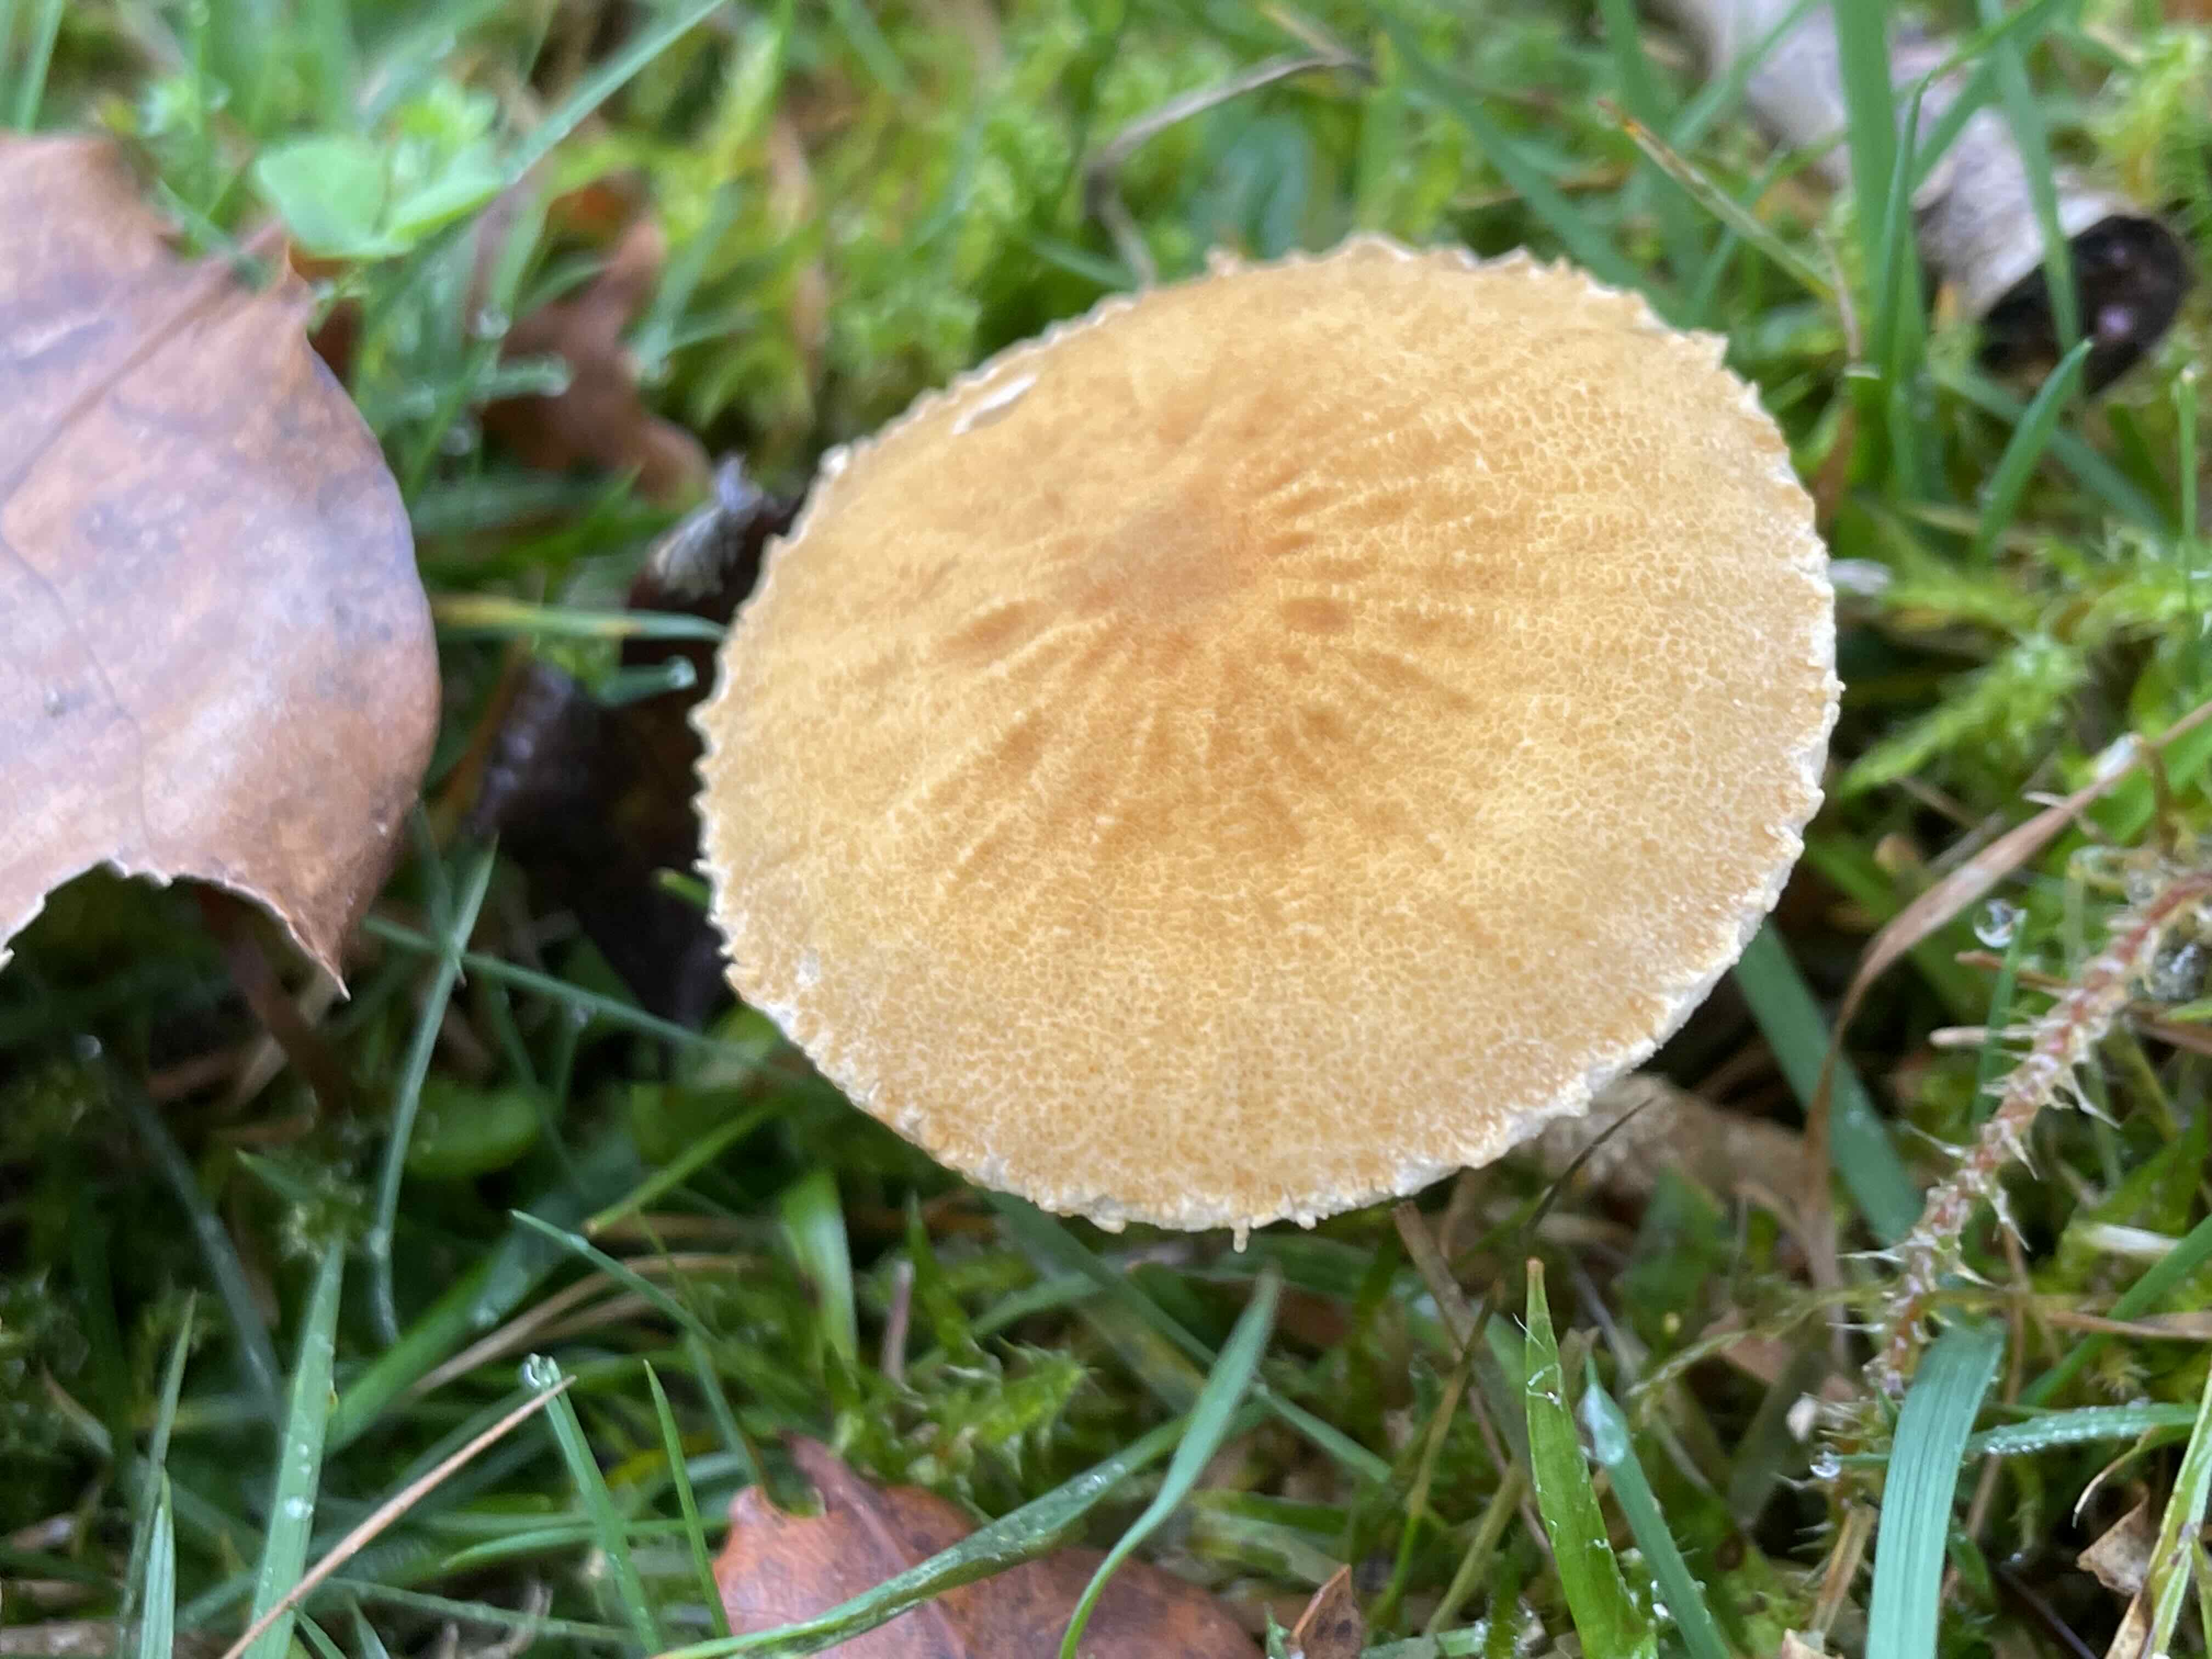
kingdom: Fungi
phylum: Basidiomycota
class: Agaricomycetes
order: Agaricales
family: Tricholomataceae
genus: Cystoderma
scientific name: Cystoderma amianthinum
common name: okkergul grynhat
